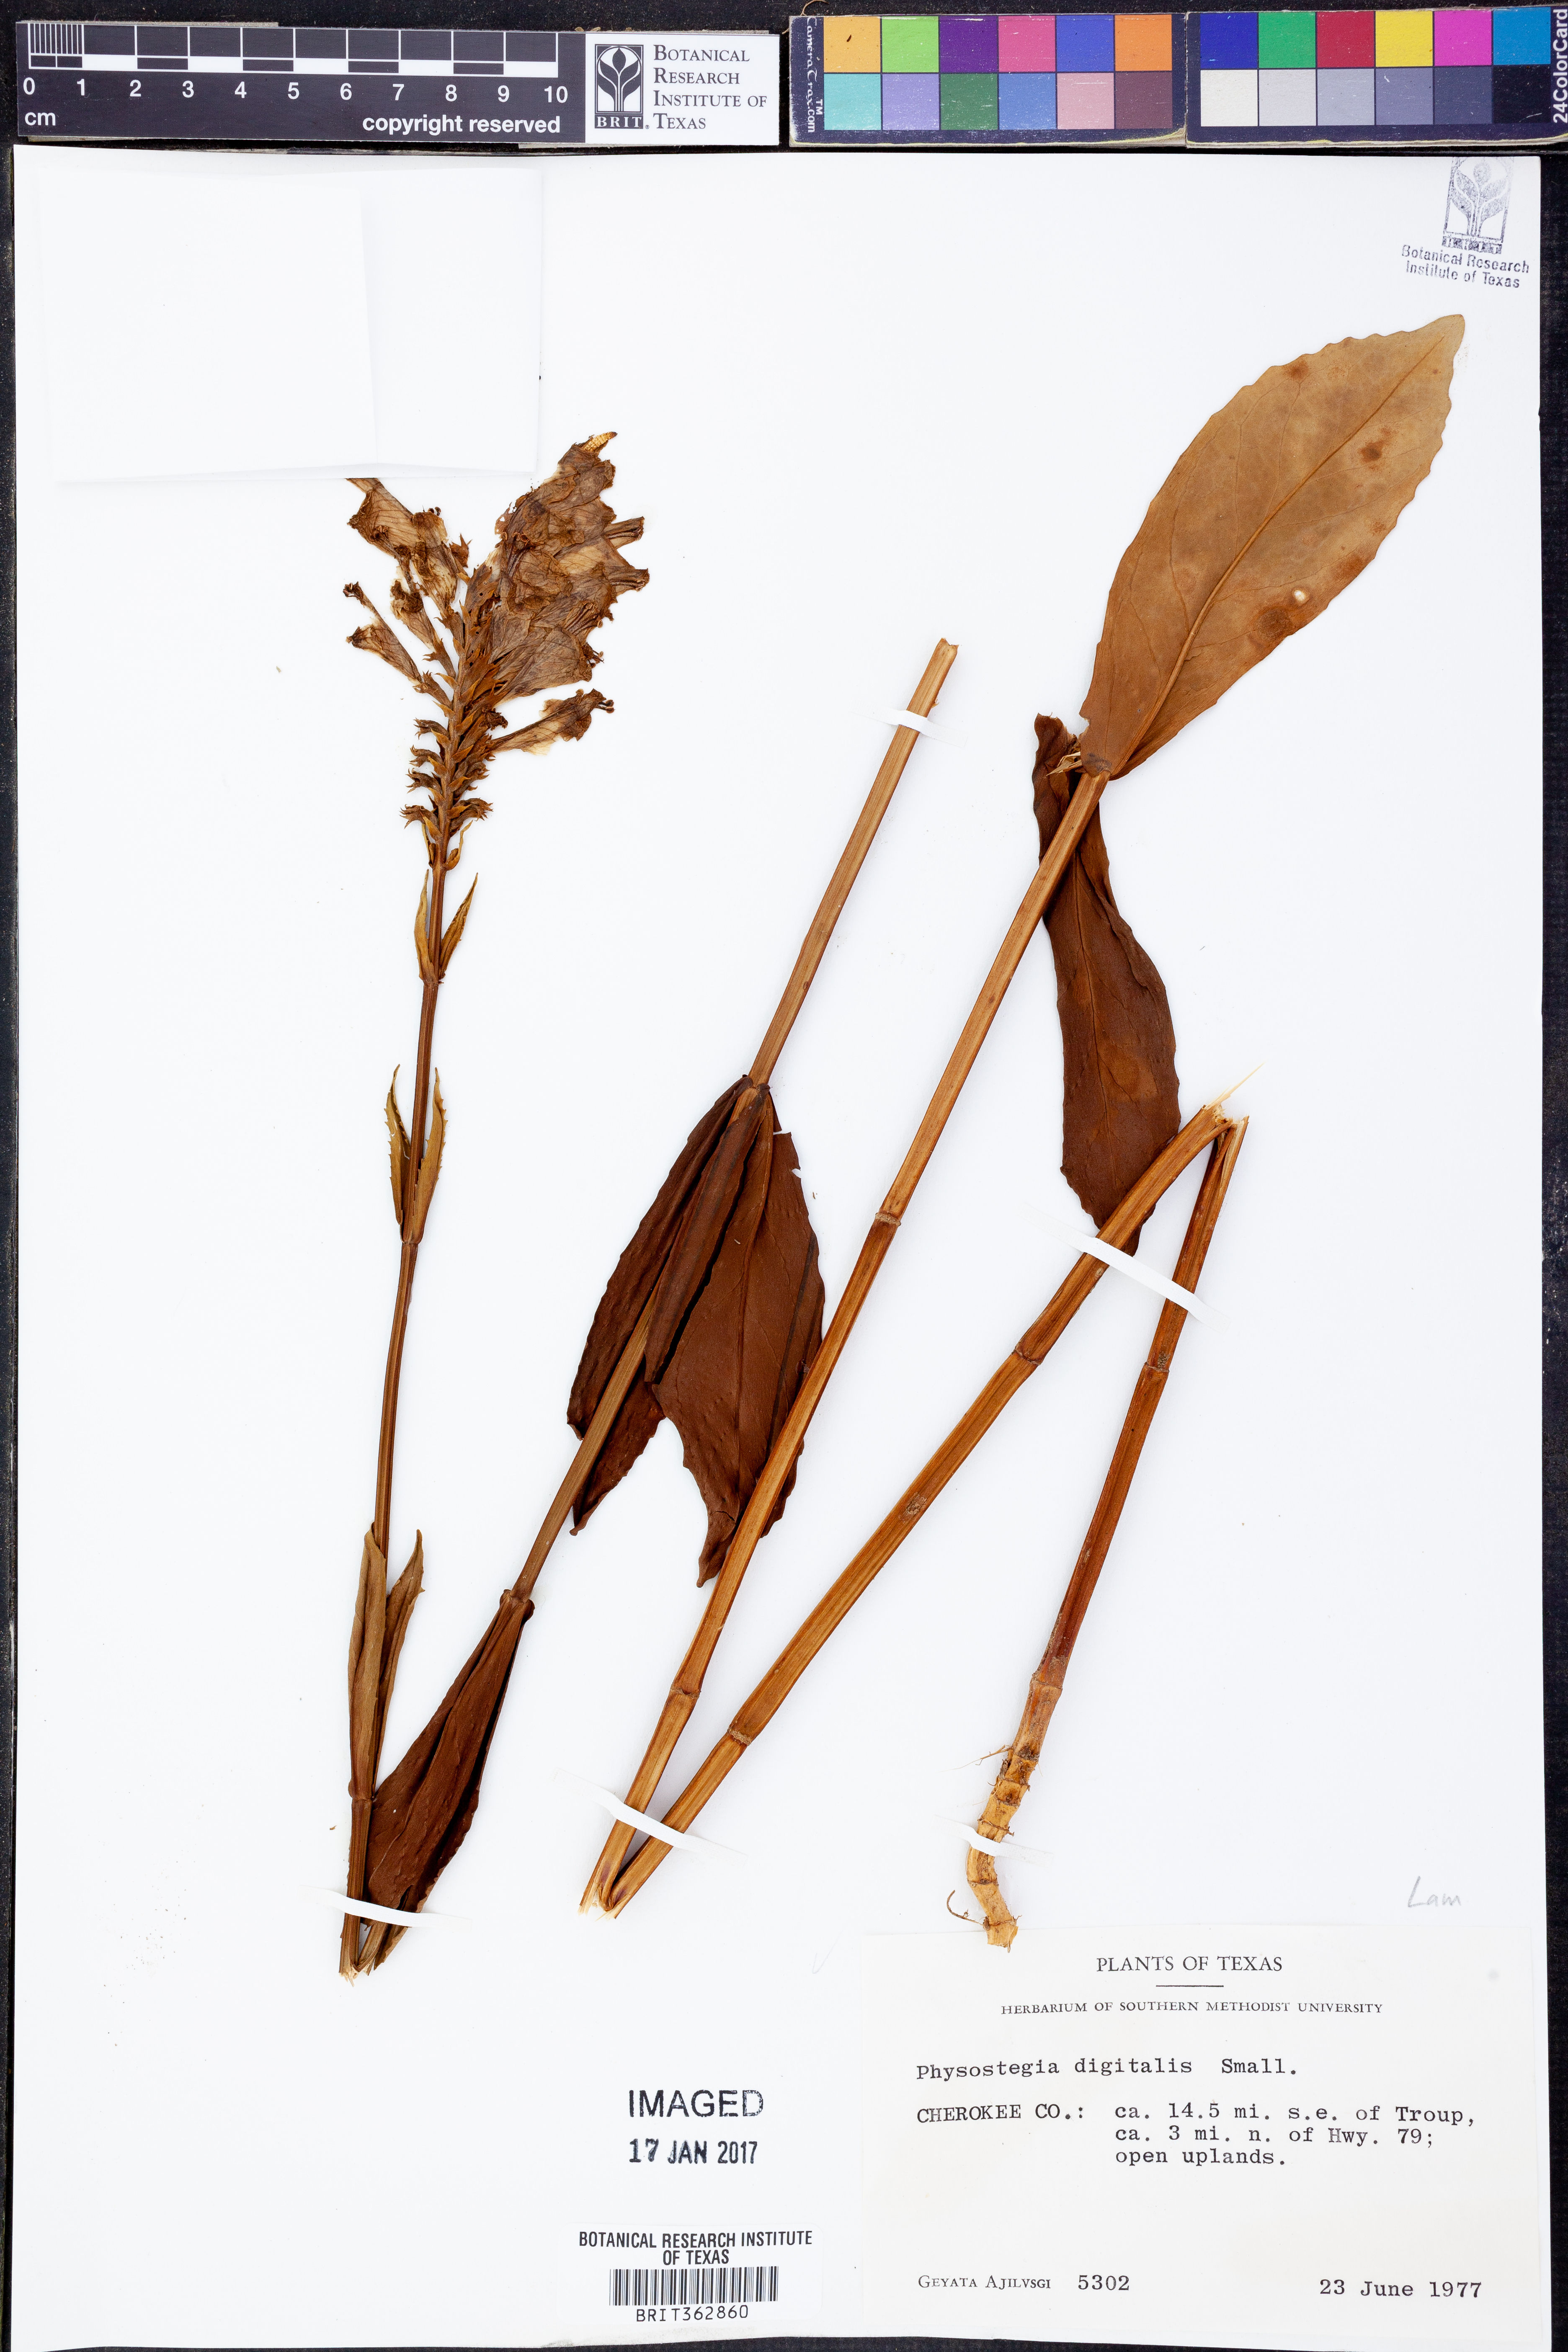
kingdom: Plantae
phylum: Tracheophyta
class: Magnoliopsida
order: Lamiales
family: Lamiaceae
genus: Physostegia
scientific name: Physostegia digitalis
